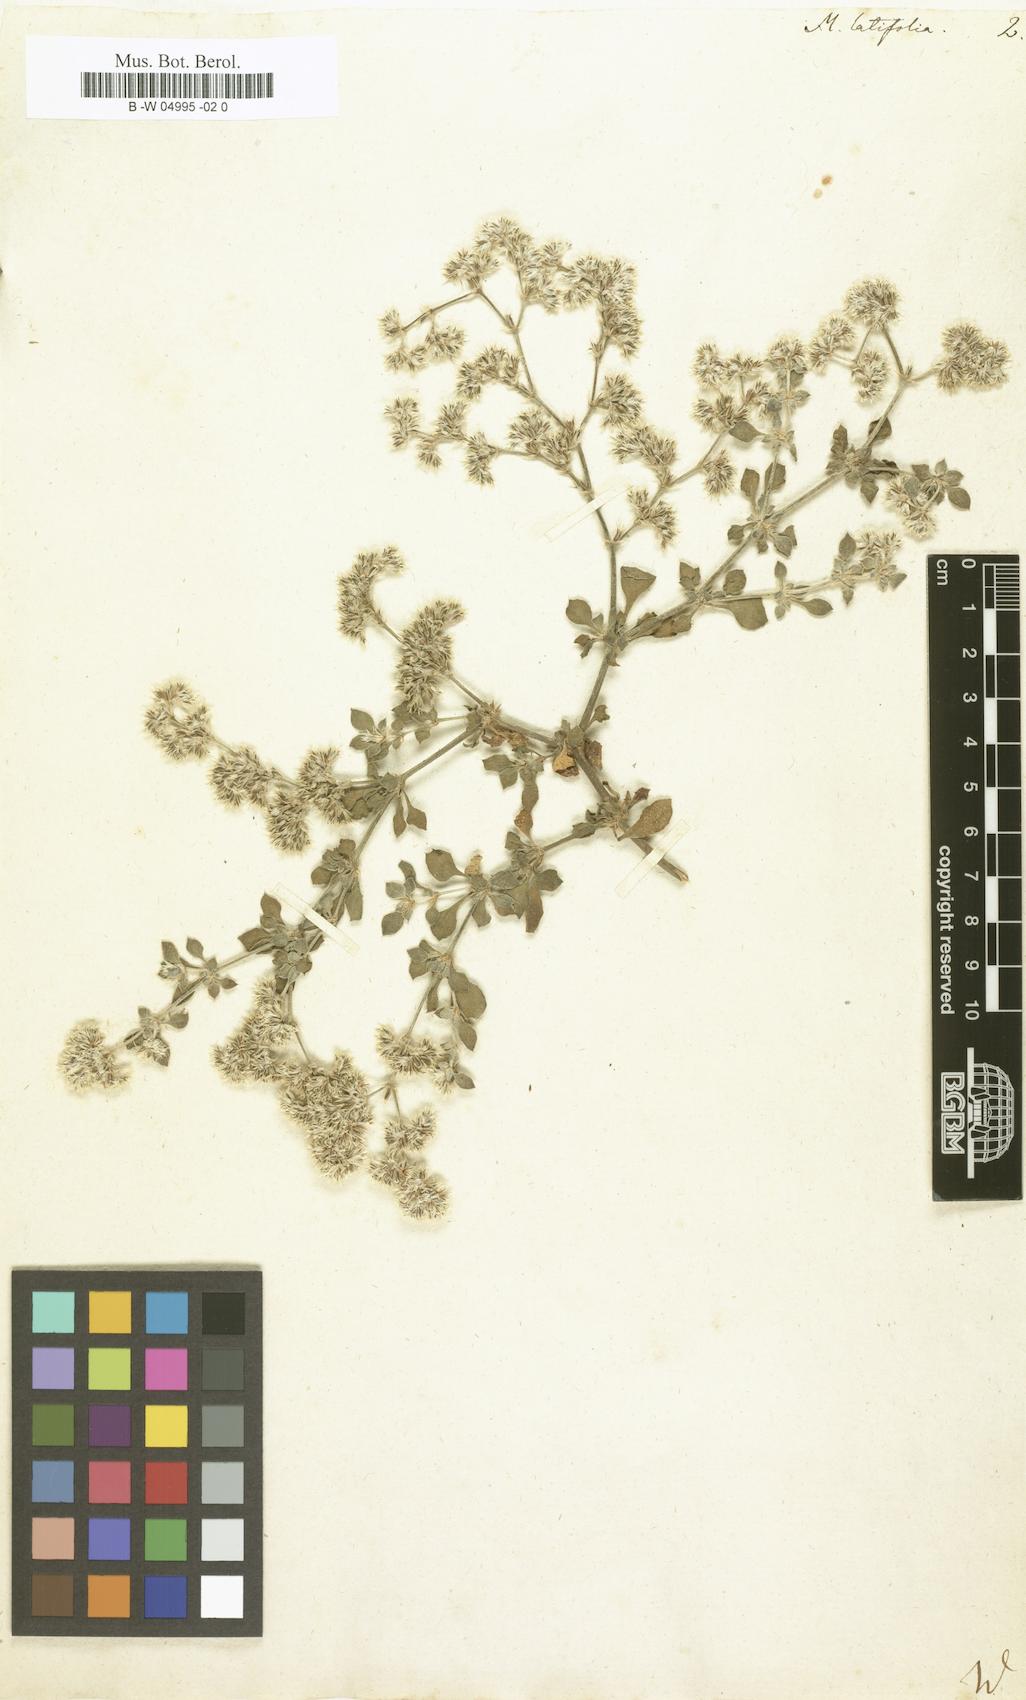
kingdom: Plantae
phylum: Tracheophyta
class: Magnoliopsida
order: Caryophyllales
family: Caryophyllaceae
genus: Polycarpaea
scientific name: Polycarpaea latifolia
